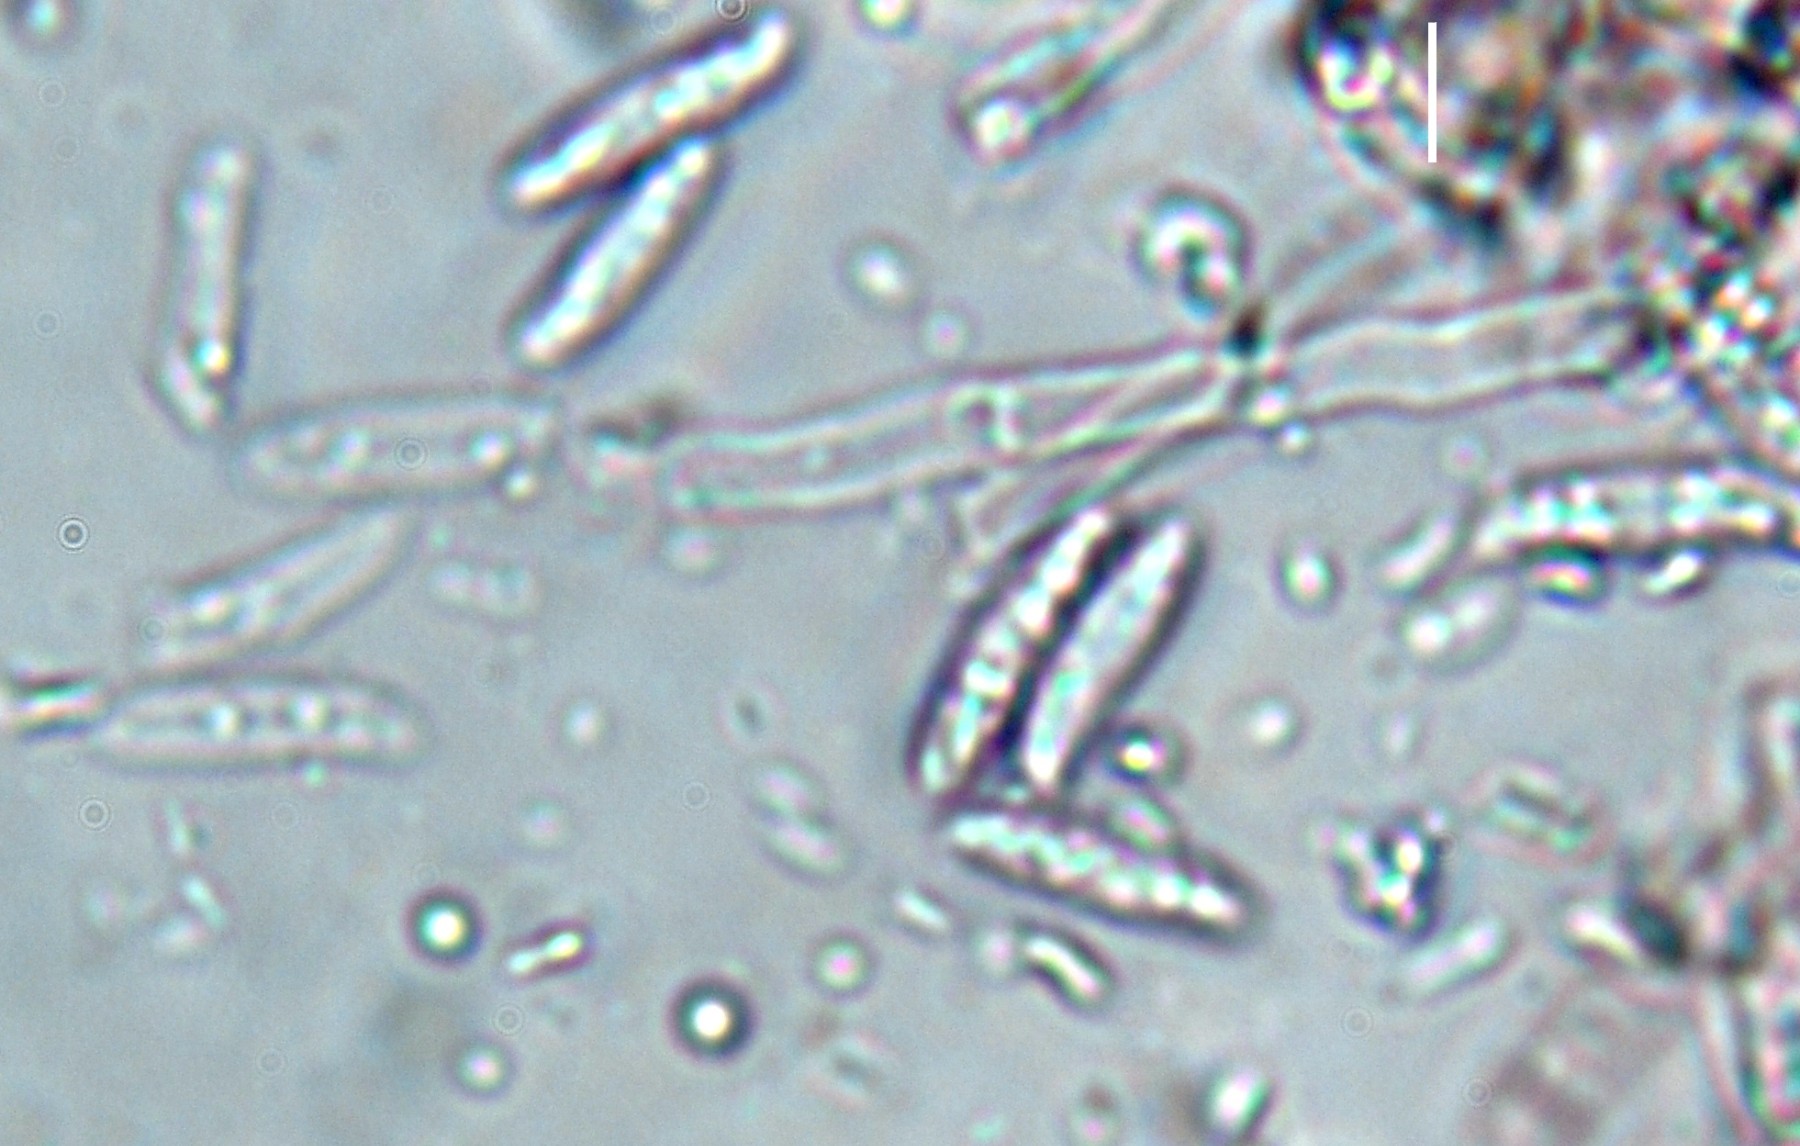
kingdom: Fungi
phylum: Basidiomycota
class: Agaricomycetes
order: Trechisporales
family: Hydnodontaceae
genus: Subulicystidium
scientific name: Subulicystidium longisporum
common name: almindelig pigtrådshinde
